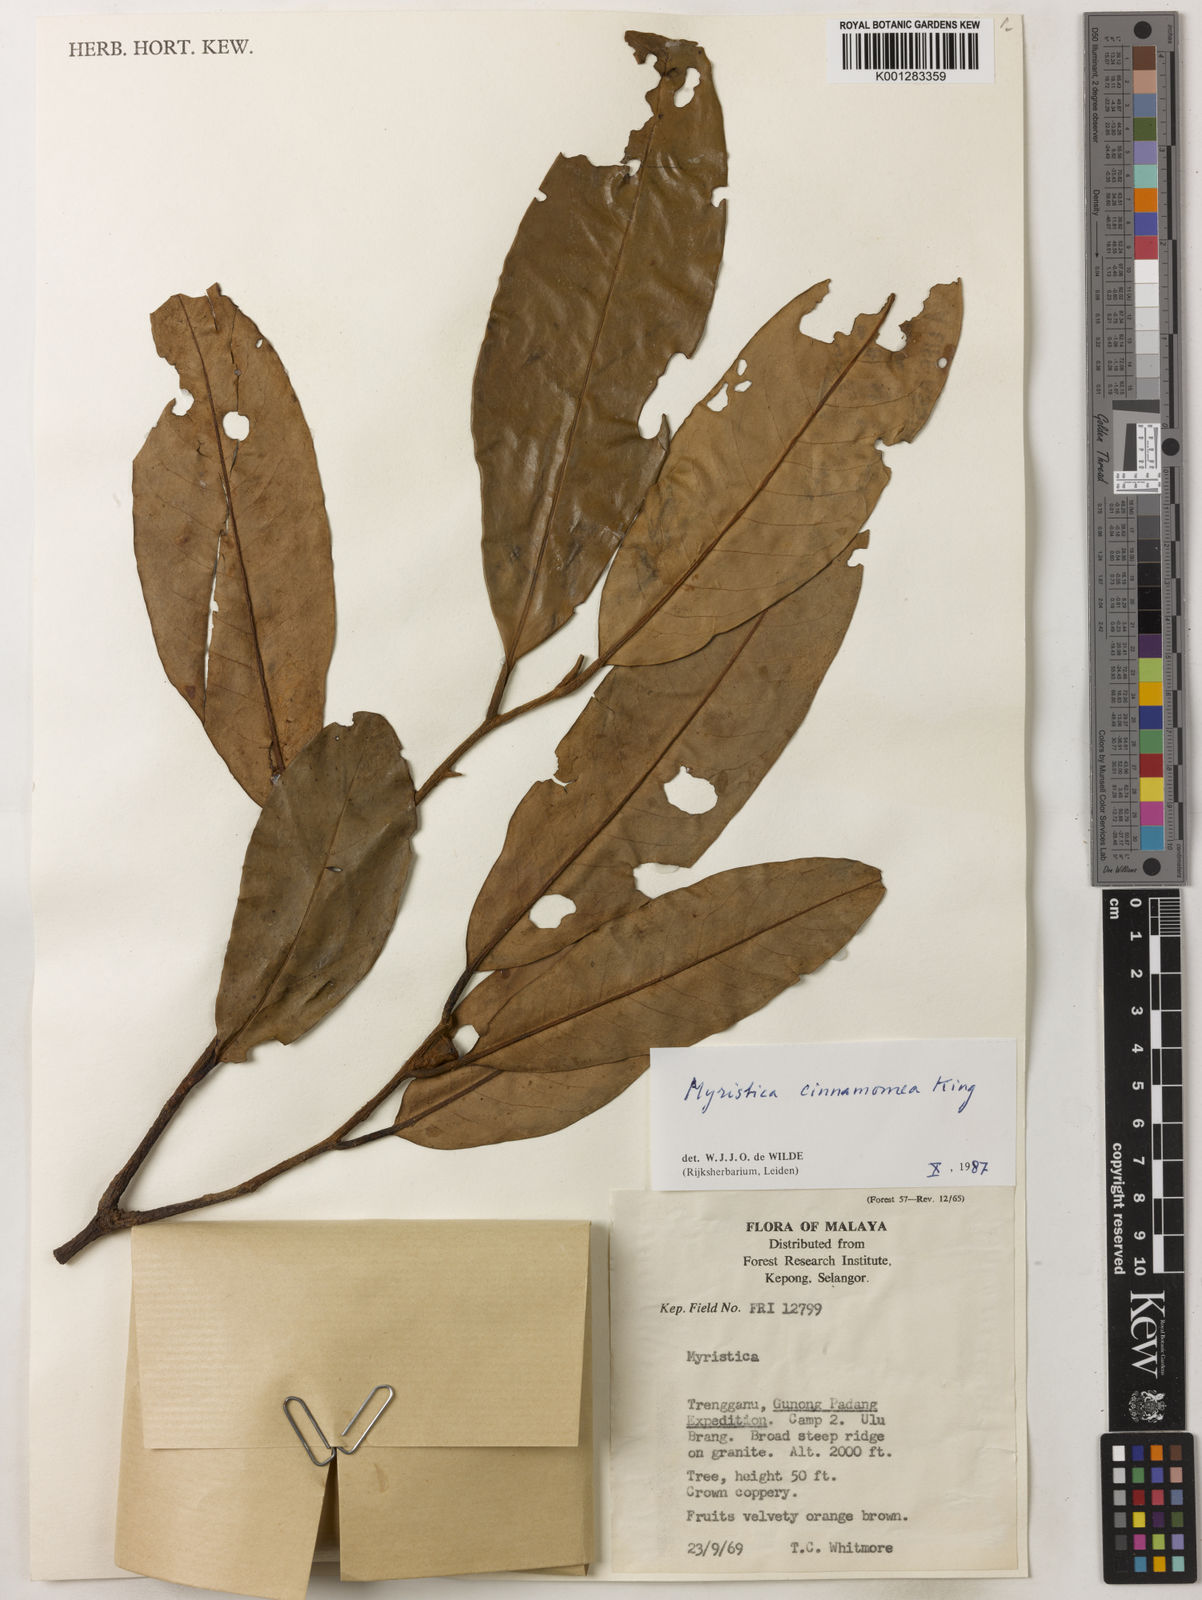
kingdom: Plantae
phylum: Tracheophyta
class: Magnoliopsida
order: Magnoliales
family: Myristicaceae
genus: Myristica
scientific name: Myristica cinnamomea
